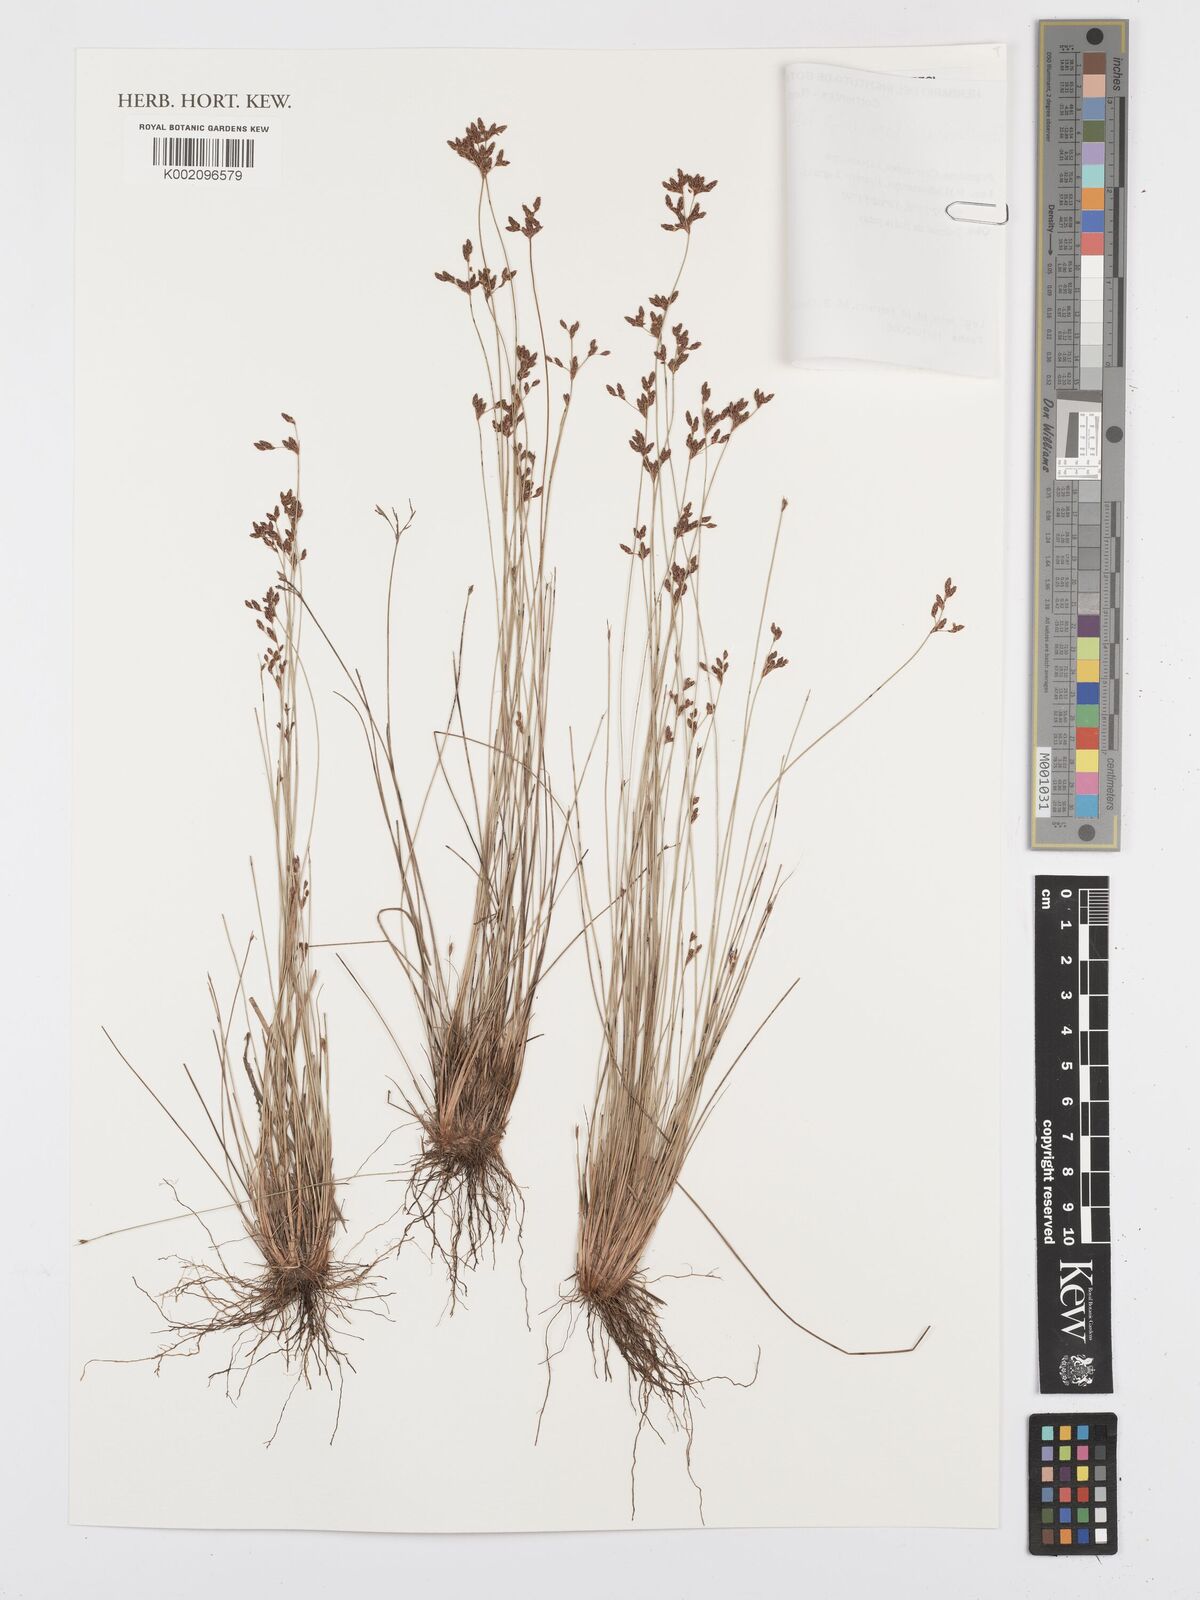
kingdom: Plantae
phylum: Tracheophyta
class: Liliopsida
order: Poales
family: Cyperaceae
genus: Bulbostylis
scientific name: Bulbostylis brevifolia
